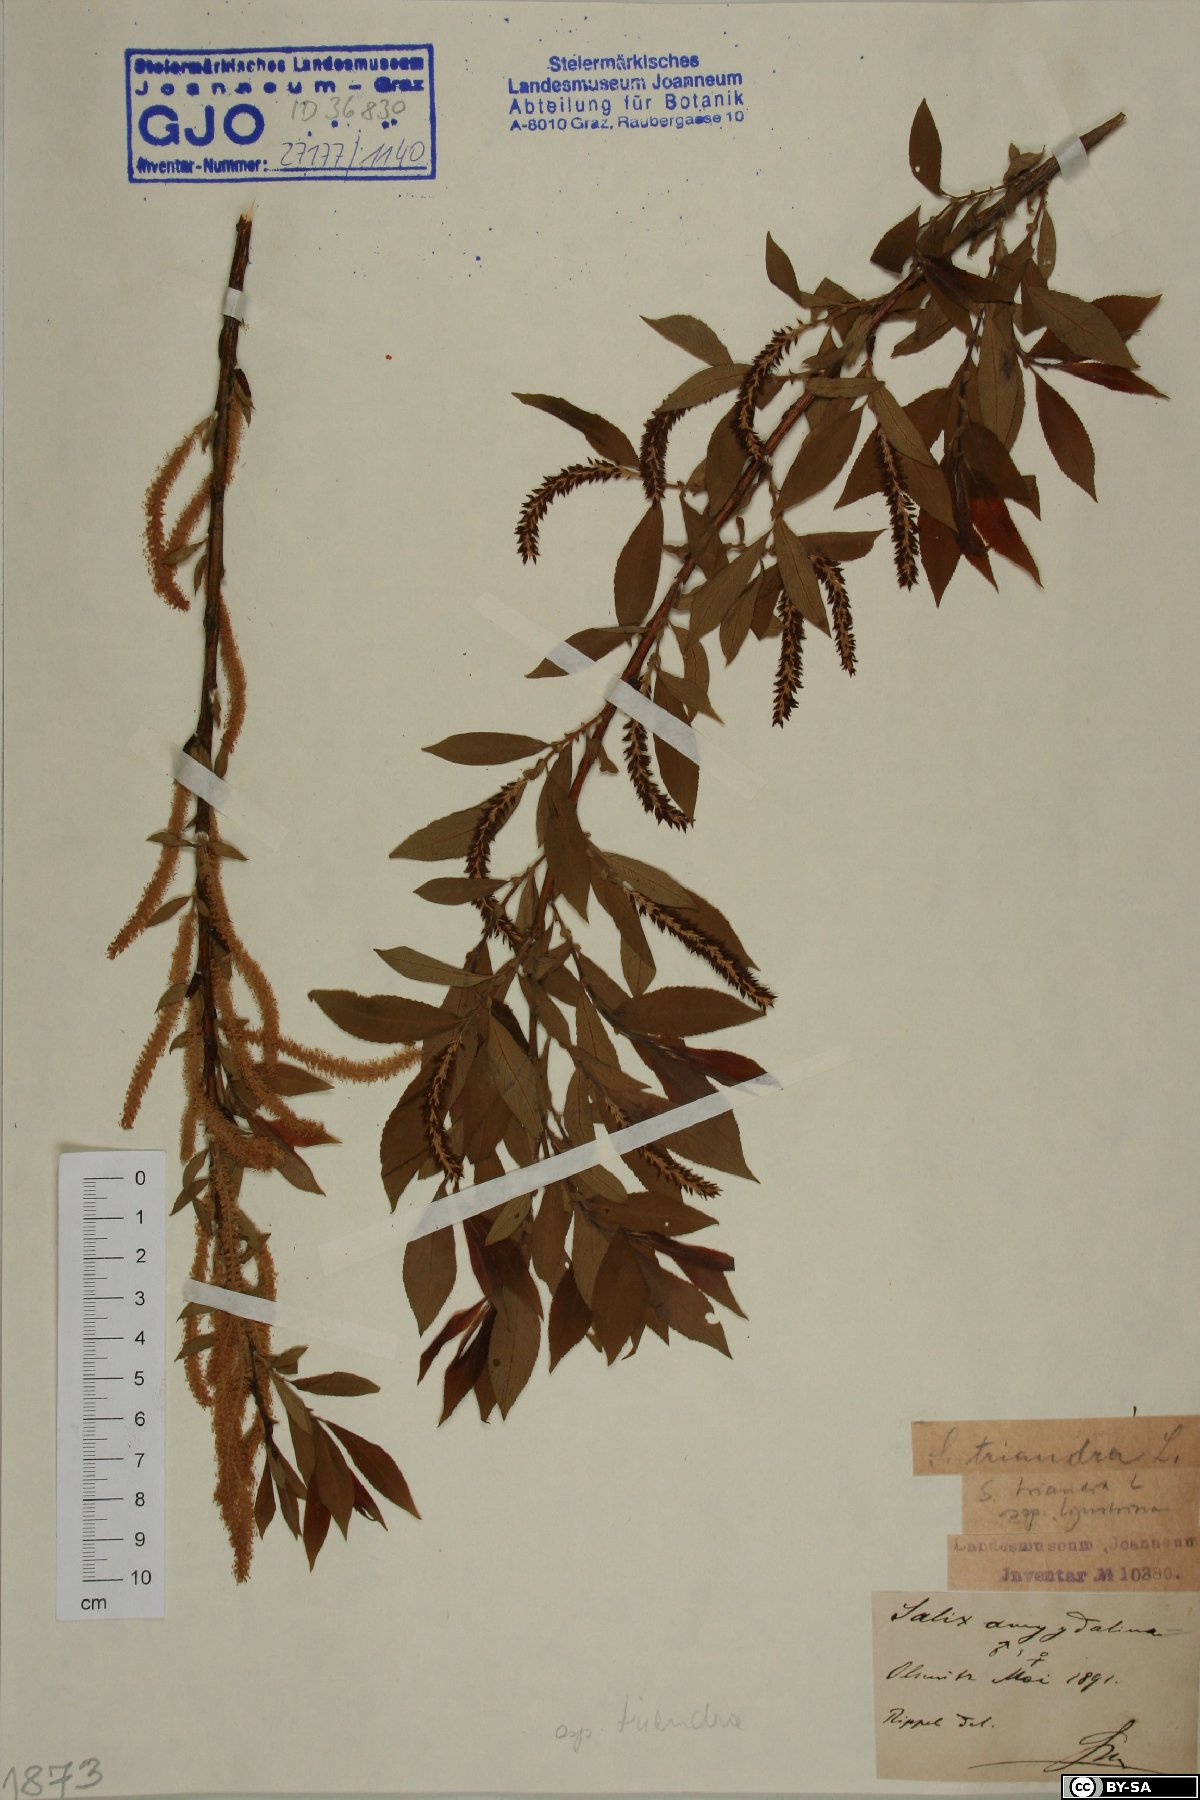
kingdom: Plantae
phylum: Tracheophyta
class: Magnoliopsida
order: Malpighiales
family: Salicaceae
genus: Salix
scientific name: Salix triandra
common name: Almond willow
